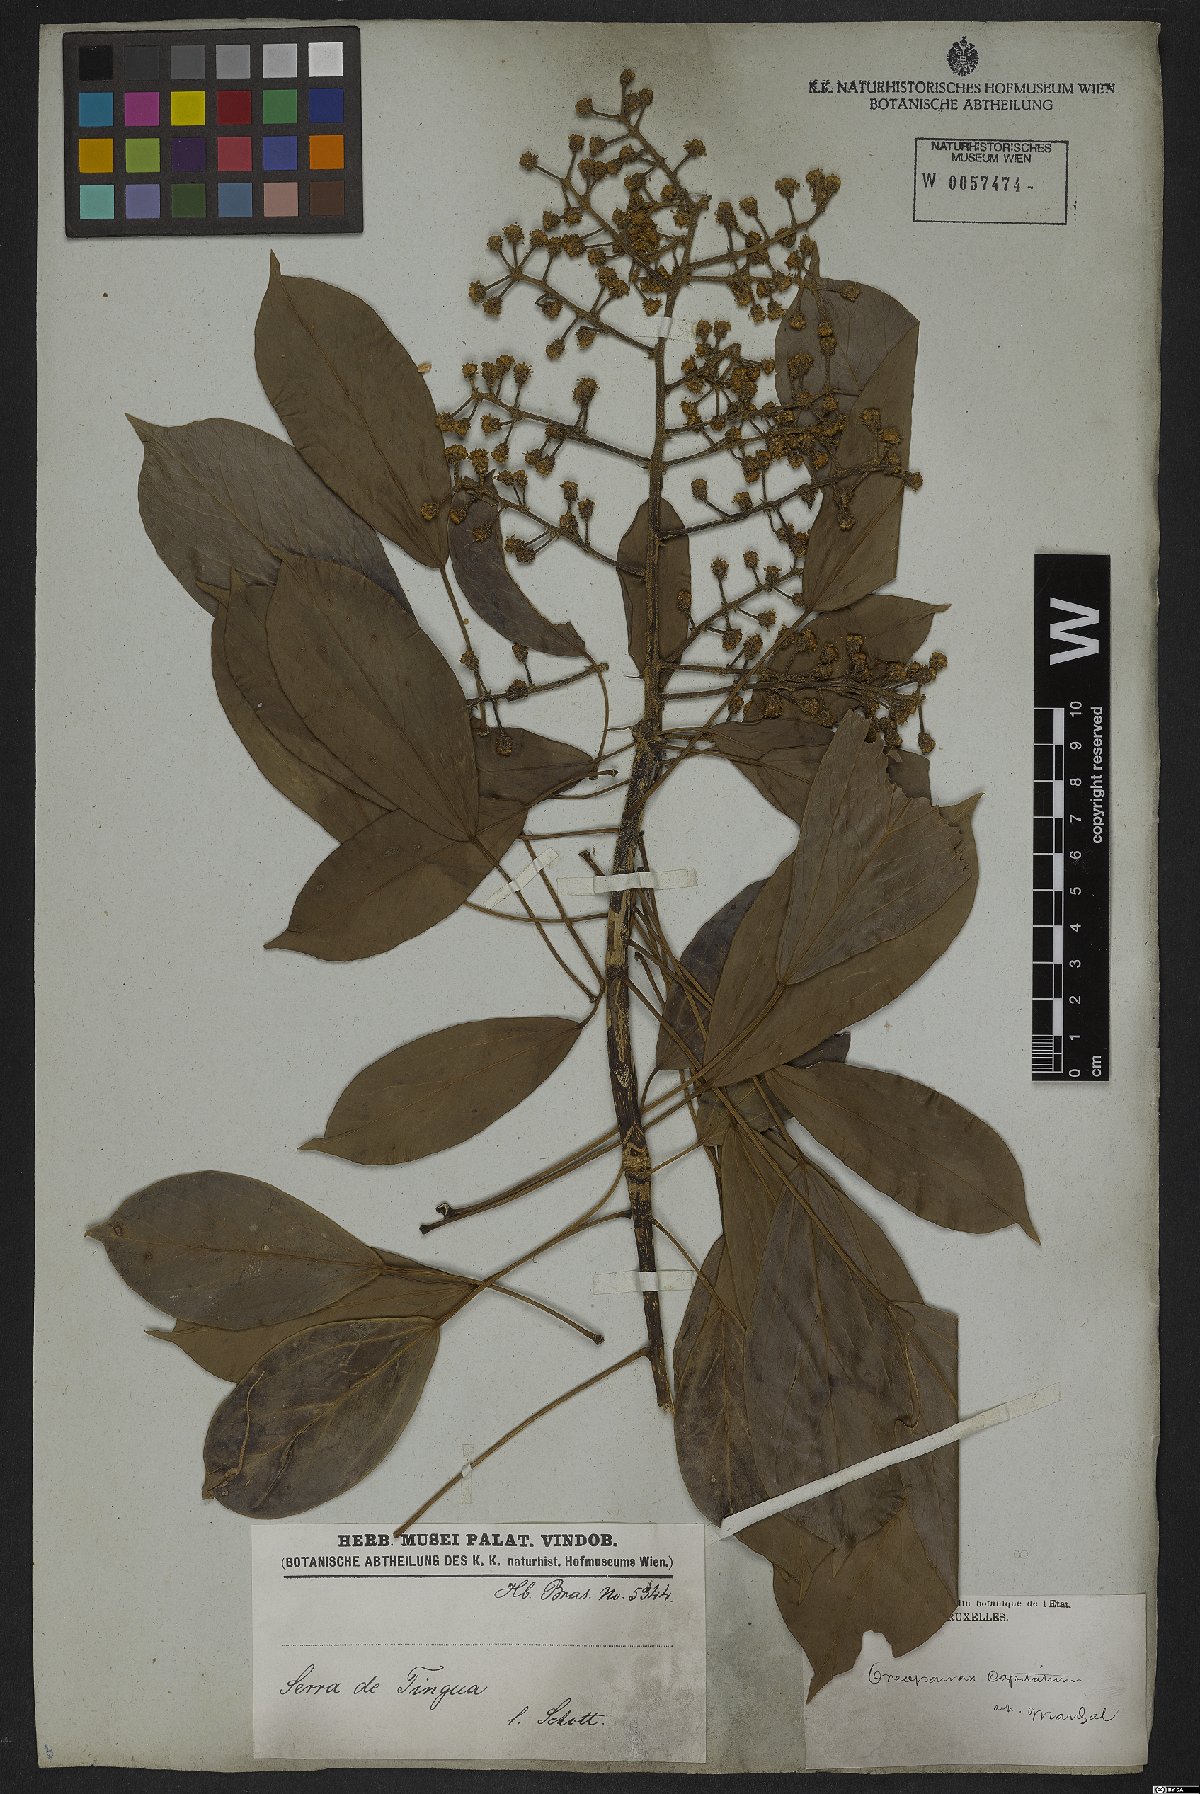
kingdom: Plantae
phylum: Tracheophyta
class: Magnoliopsida
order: Apiales
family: Araliaceae
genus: Oreopanax
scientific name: Oreopanax capitatus
